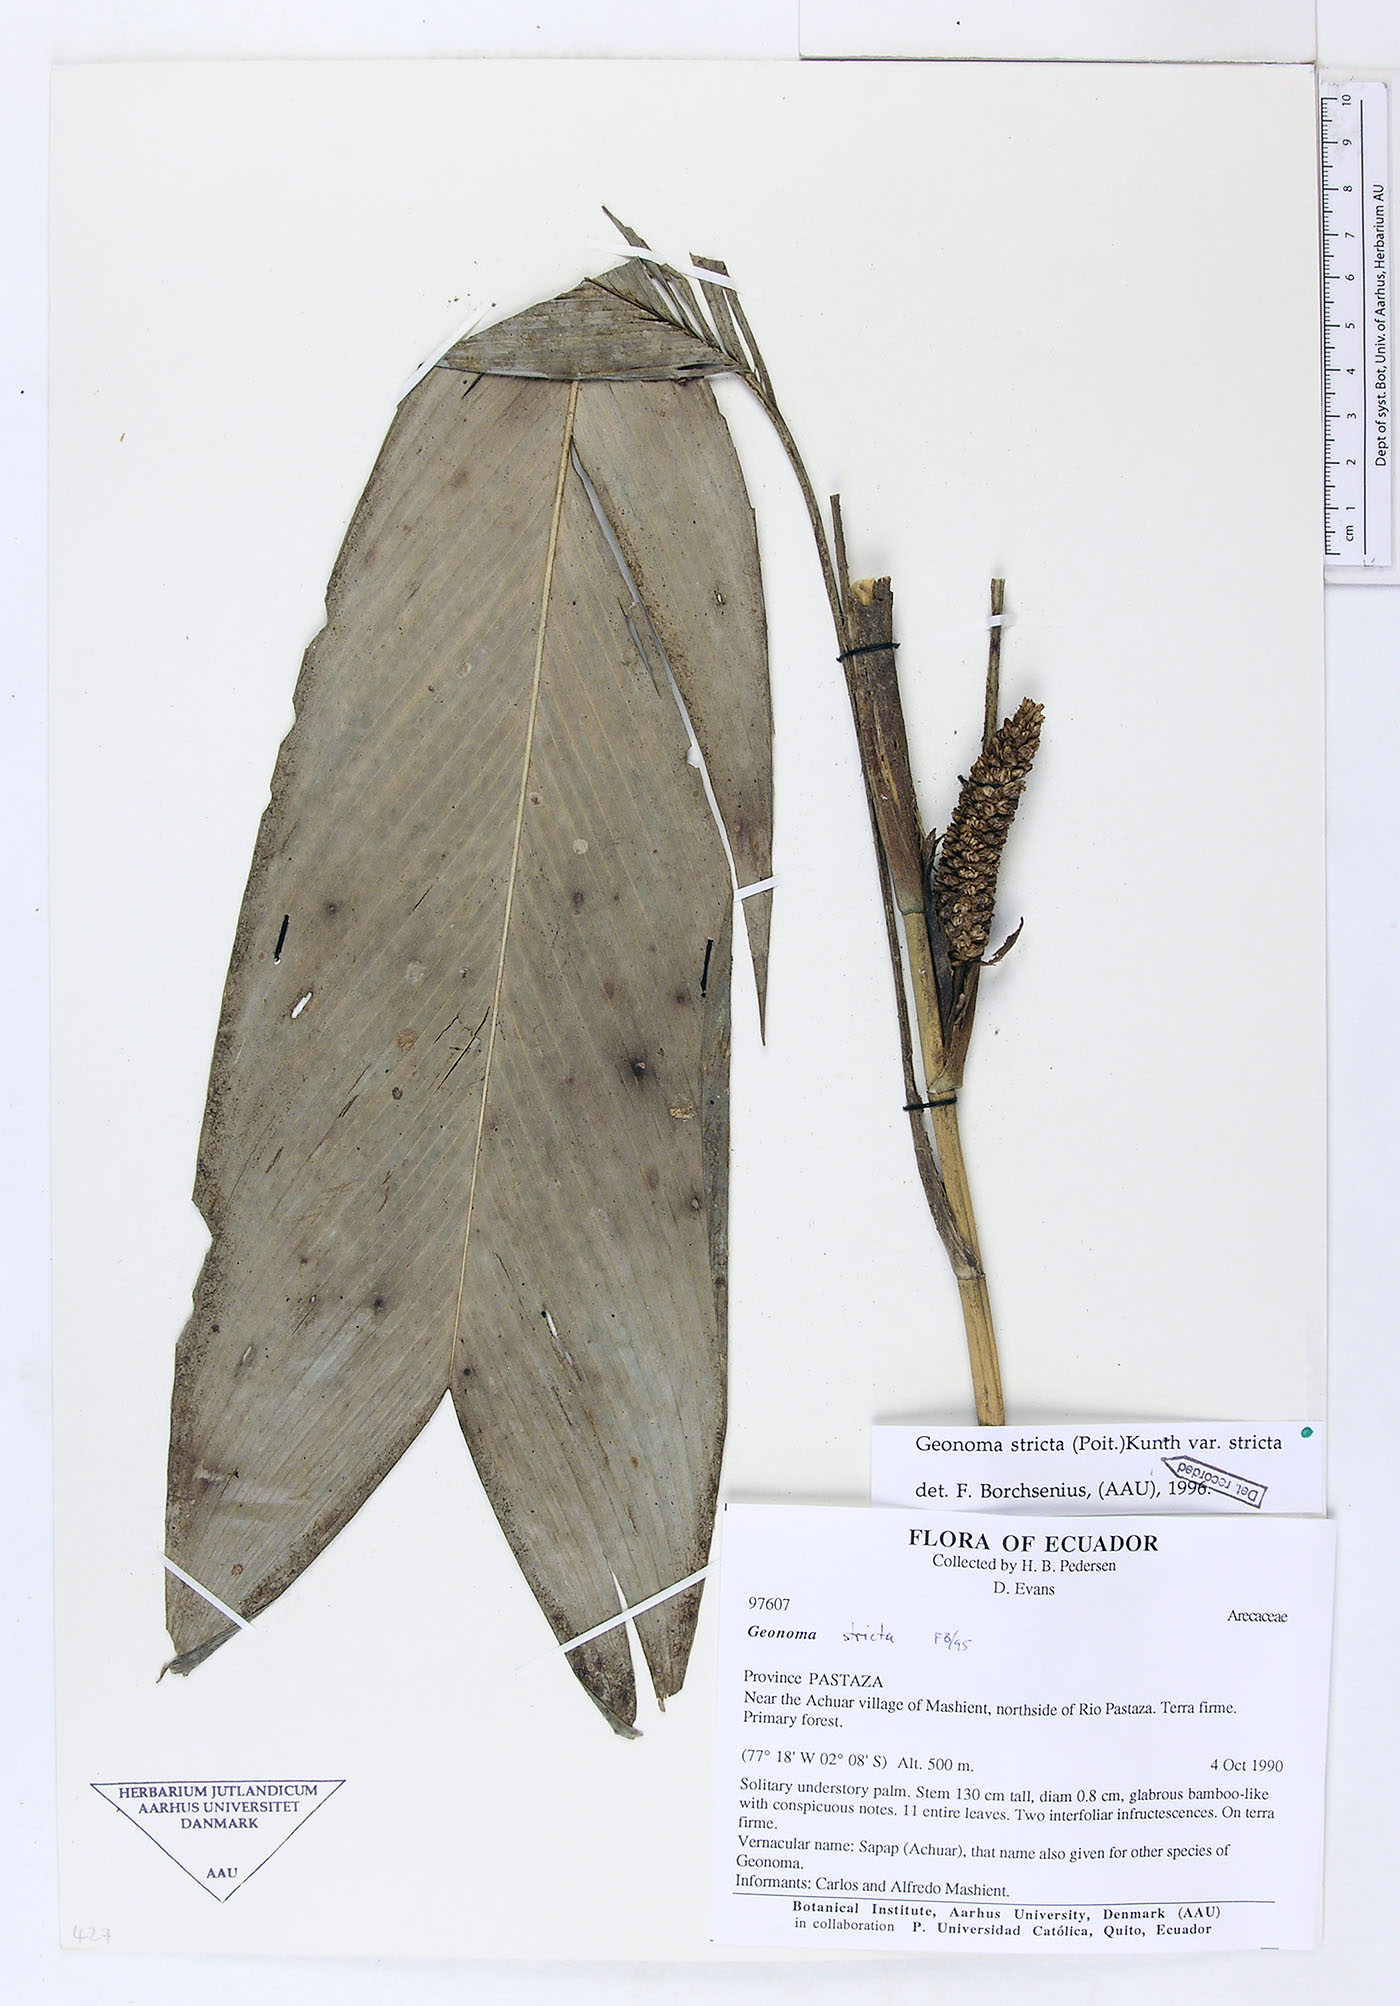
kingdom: Plantae
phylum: Tracheophyta
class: Liliopsida
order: Arecales
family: Arecaceae
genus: Geonoma
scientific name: Geonoma stricta
